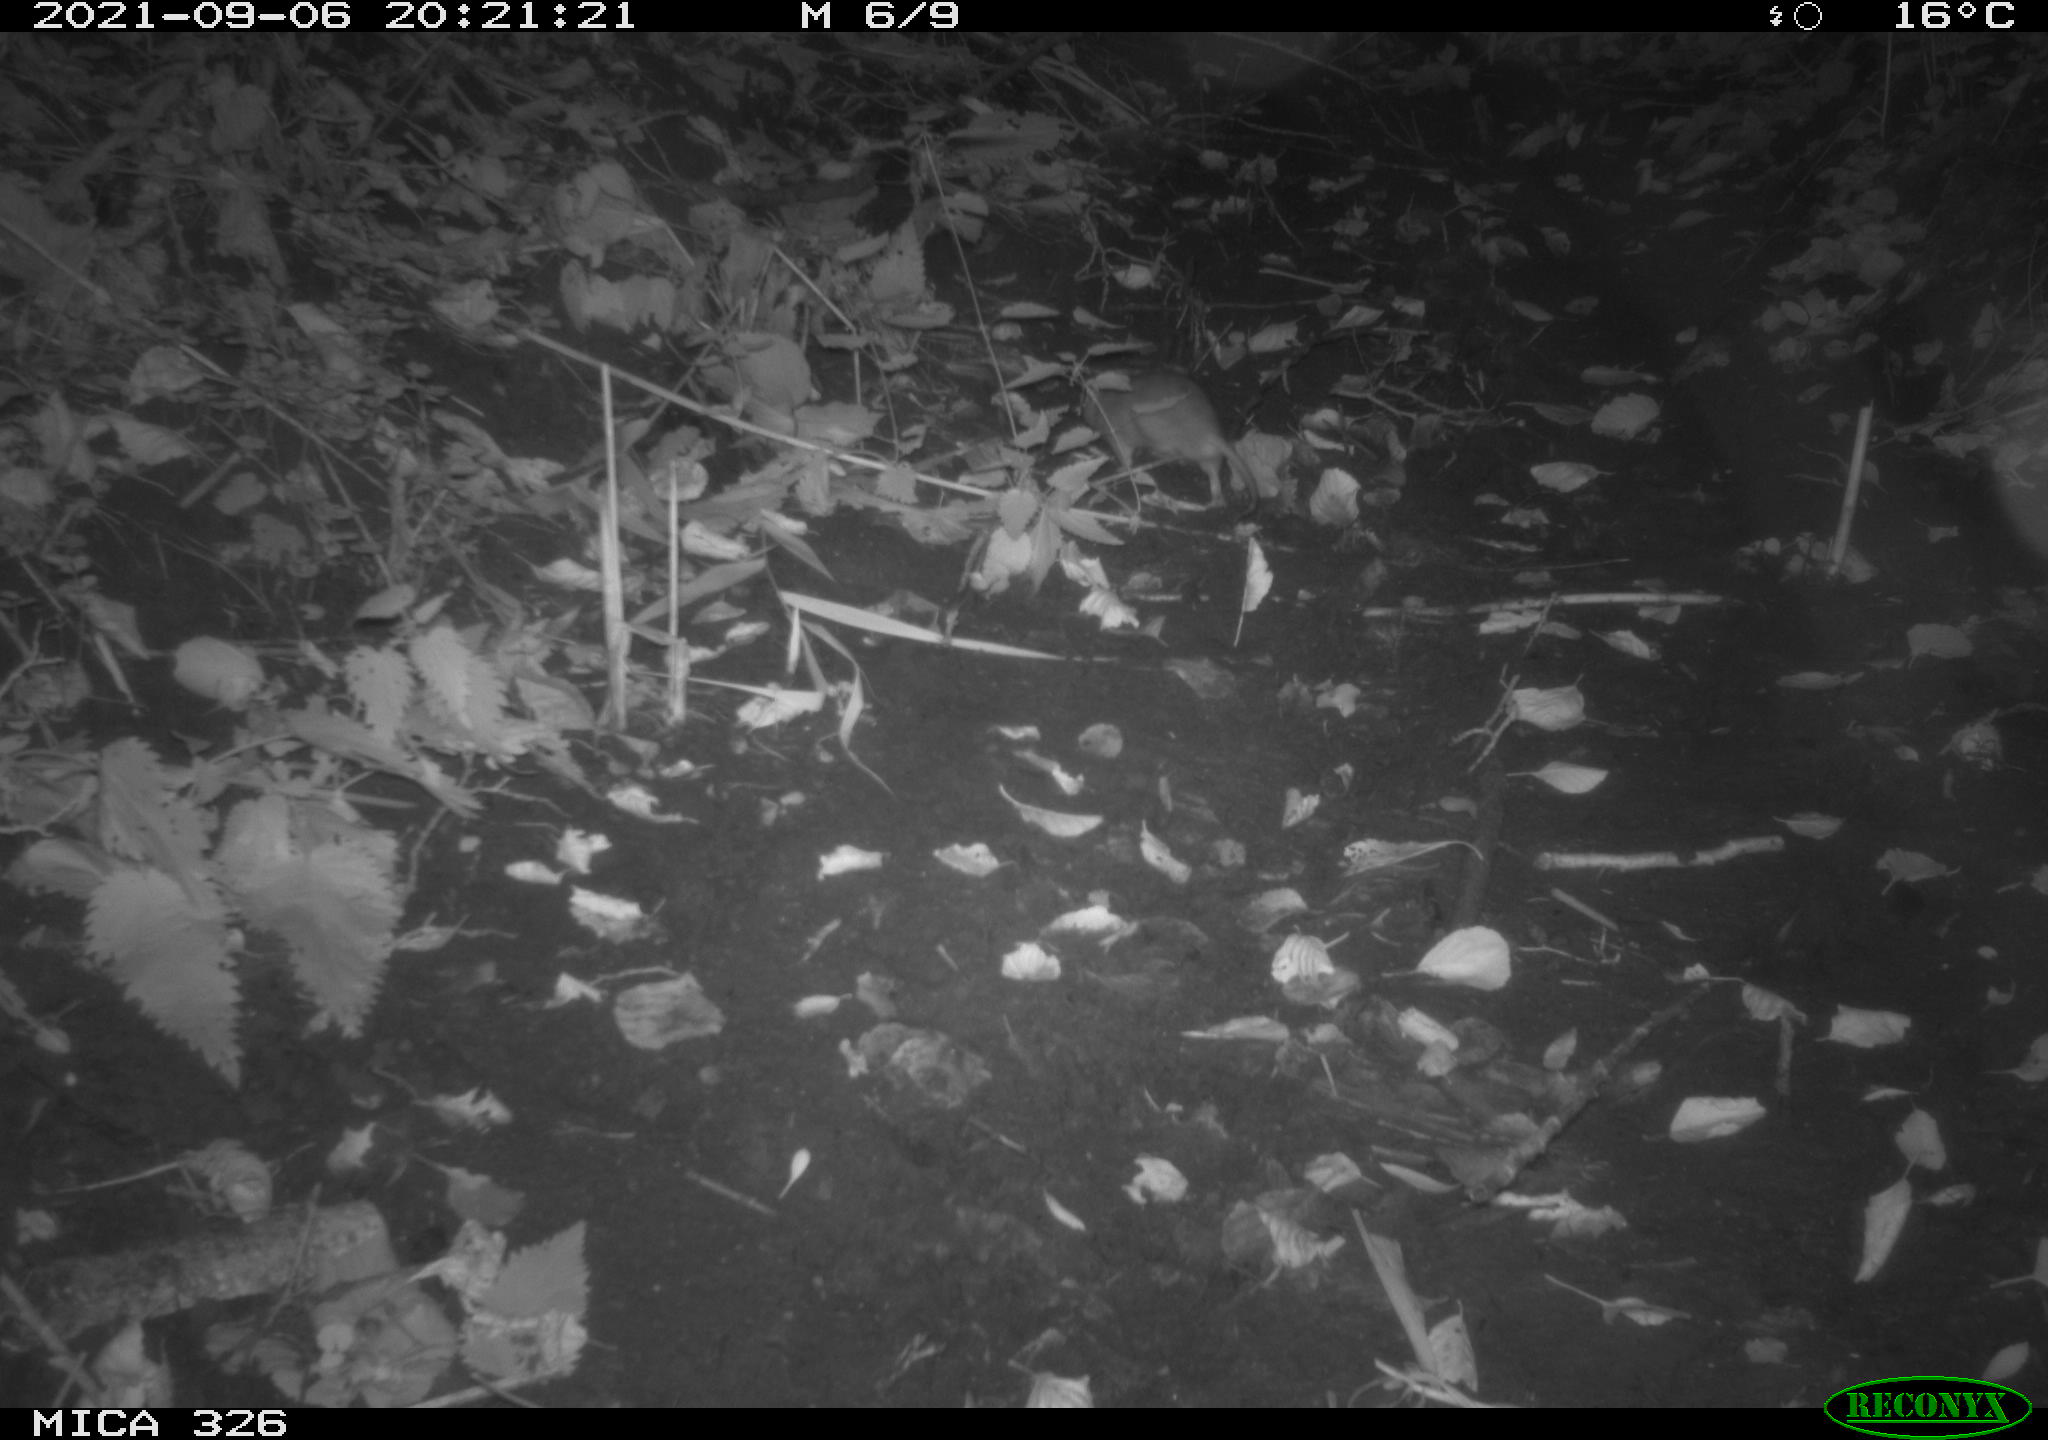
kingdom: Animalia
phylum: Chordata
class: Mammalia
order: Rodentia
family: Muridae
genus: Rattus
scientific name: Rattus norvegicus
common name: Brown rat
